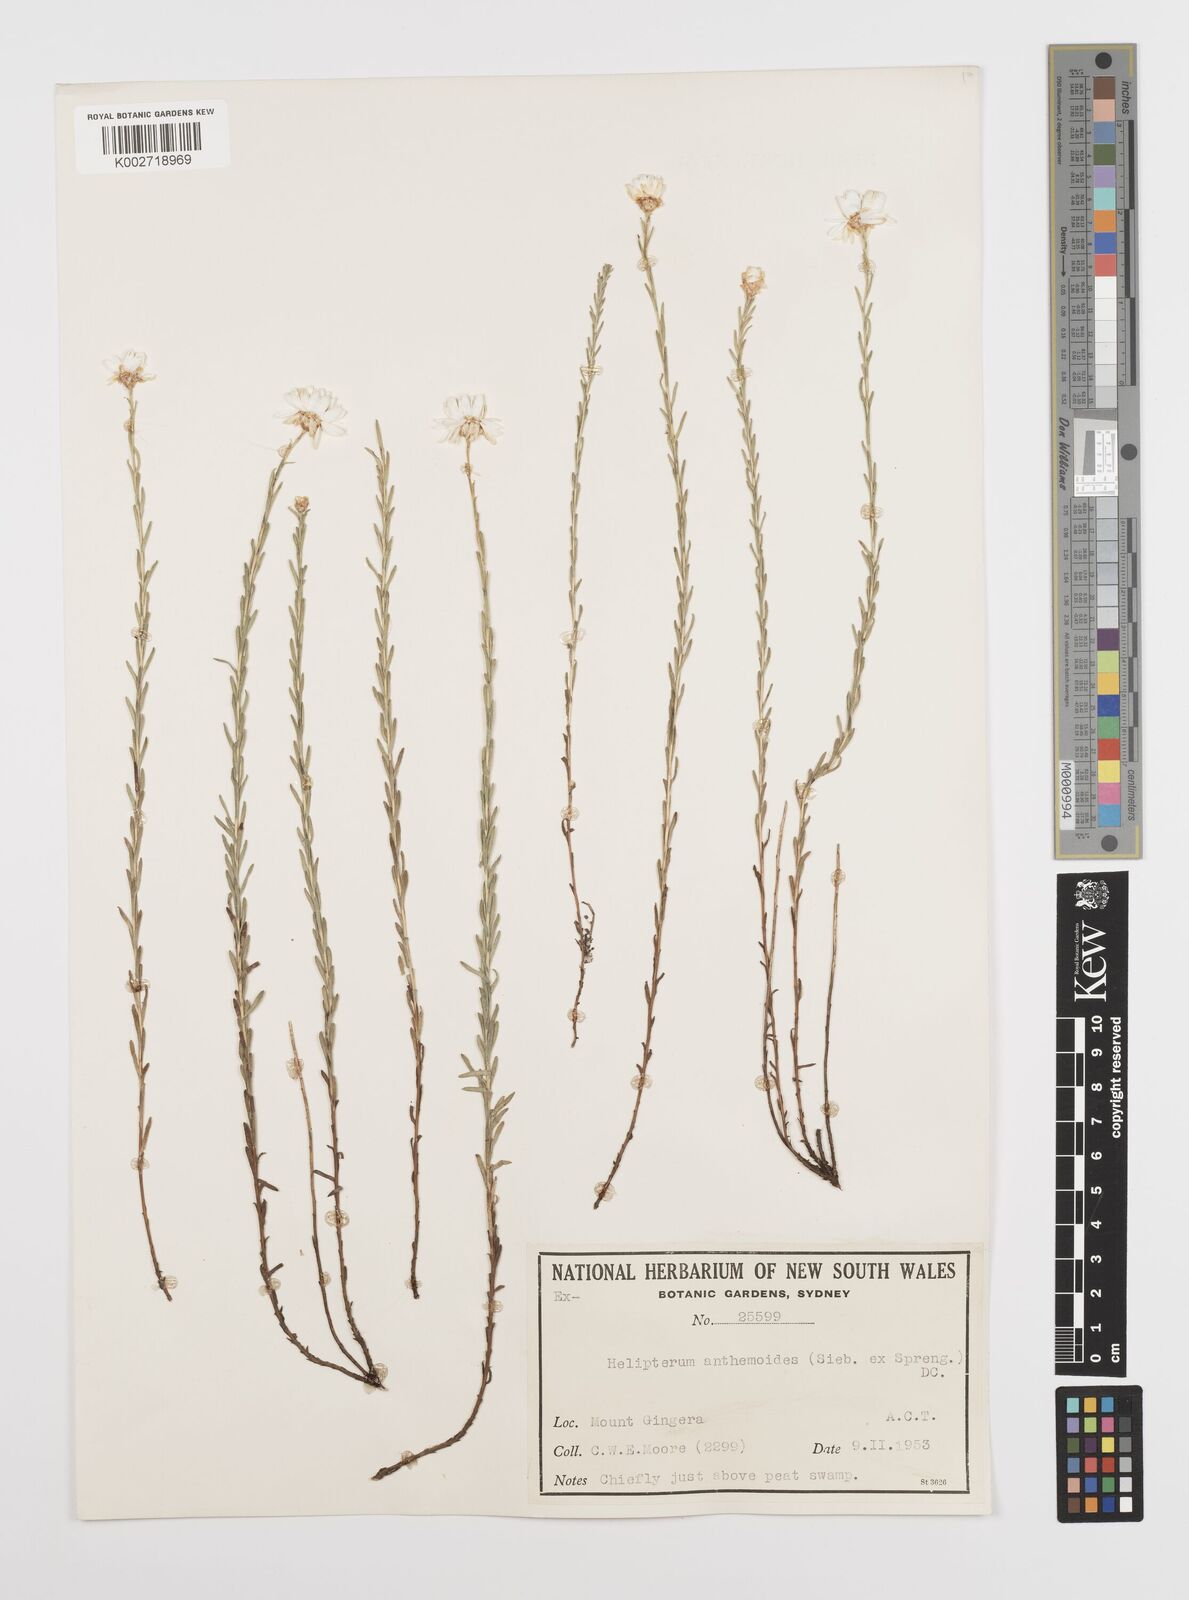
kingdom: Plantae
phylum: Tracheophyta
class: Magnoliopsida
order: Asterales
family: Asteraceae
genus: Rhodanthe
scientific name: Rhodanthe anthemoides
